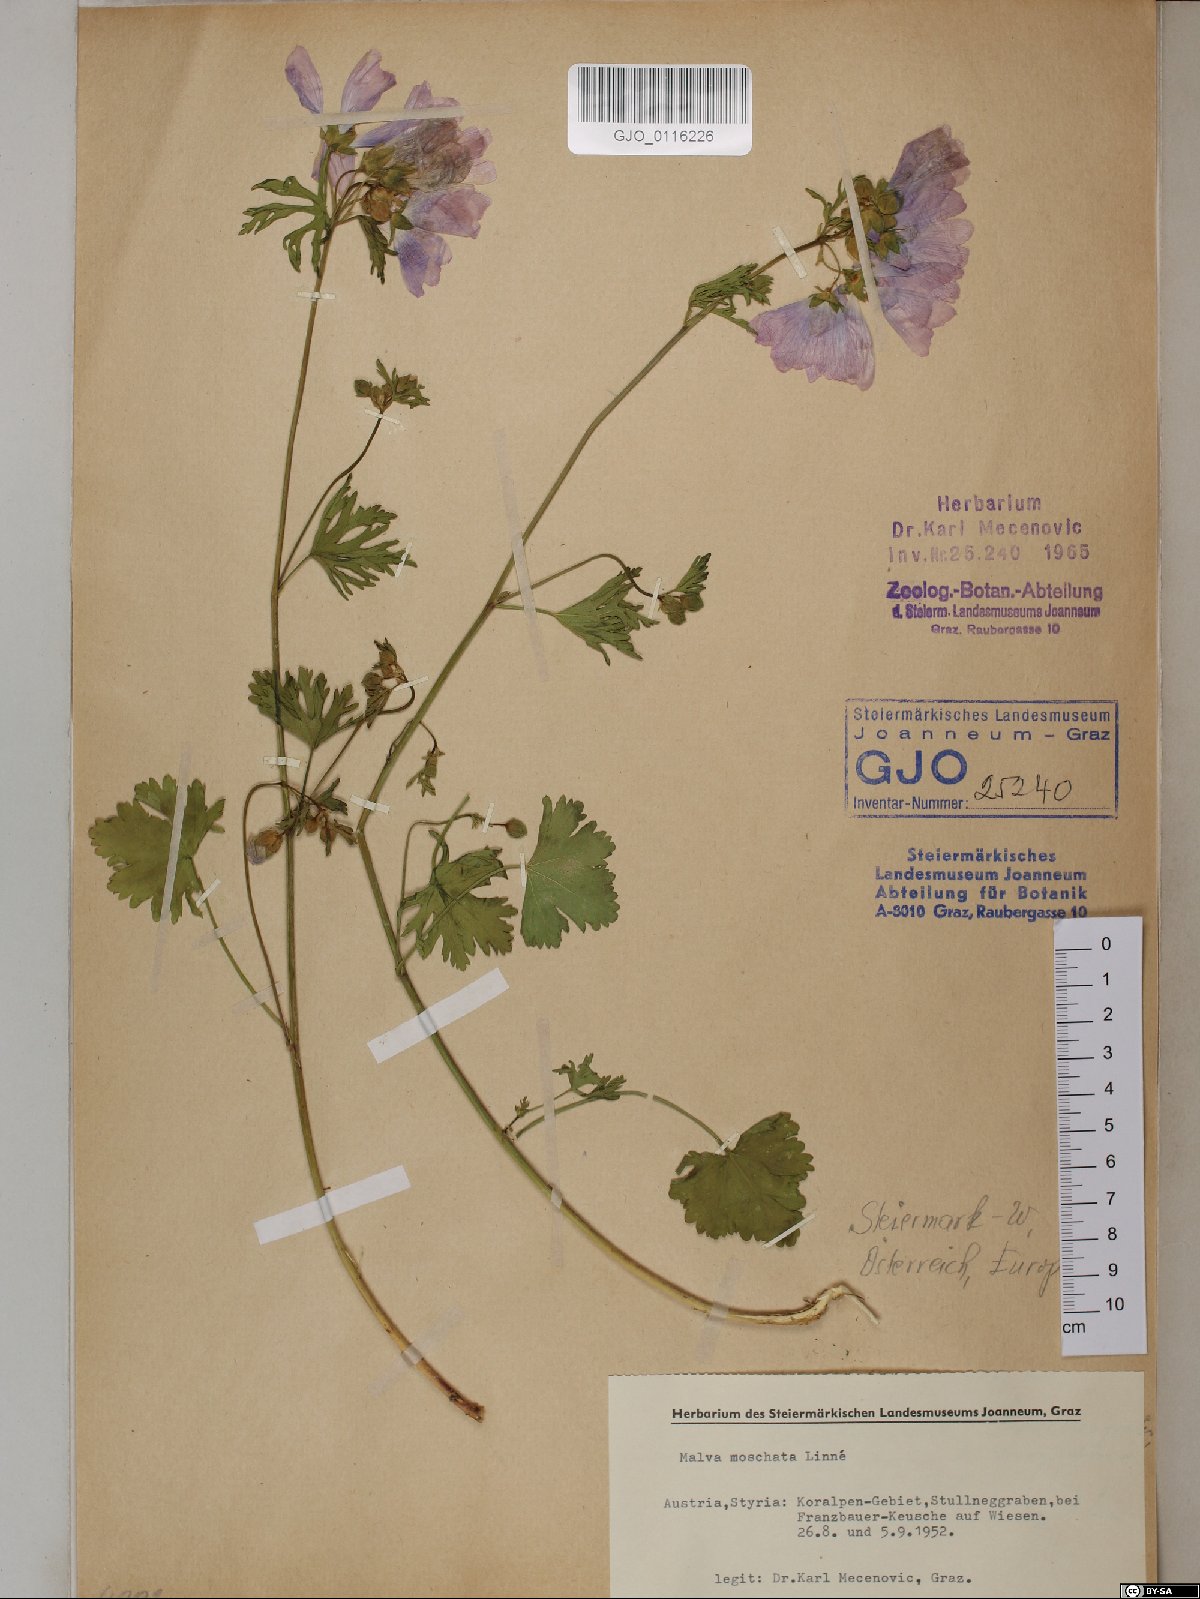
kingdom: Plantae
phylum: Tracheophyta
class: Magnoliopsida
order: Malvales
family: Malvaceae
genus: Malva
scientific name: Malva moschata
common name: Musk mallow
